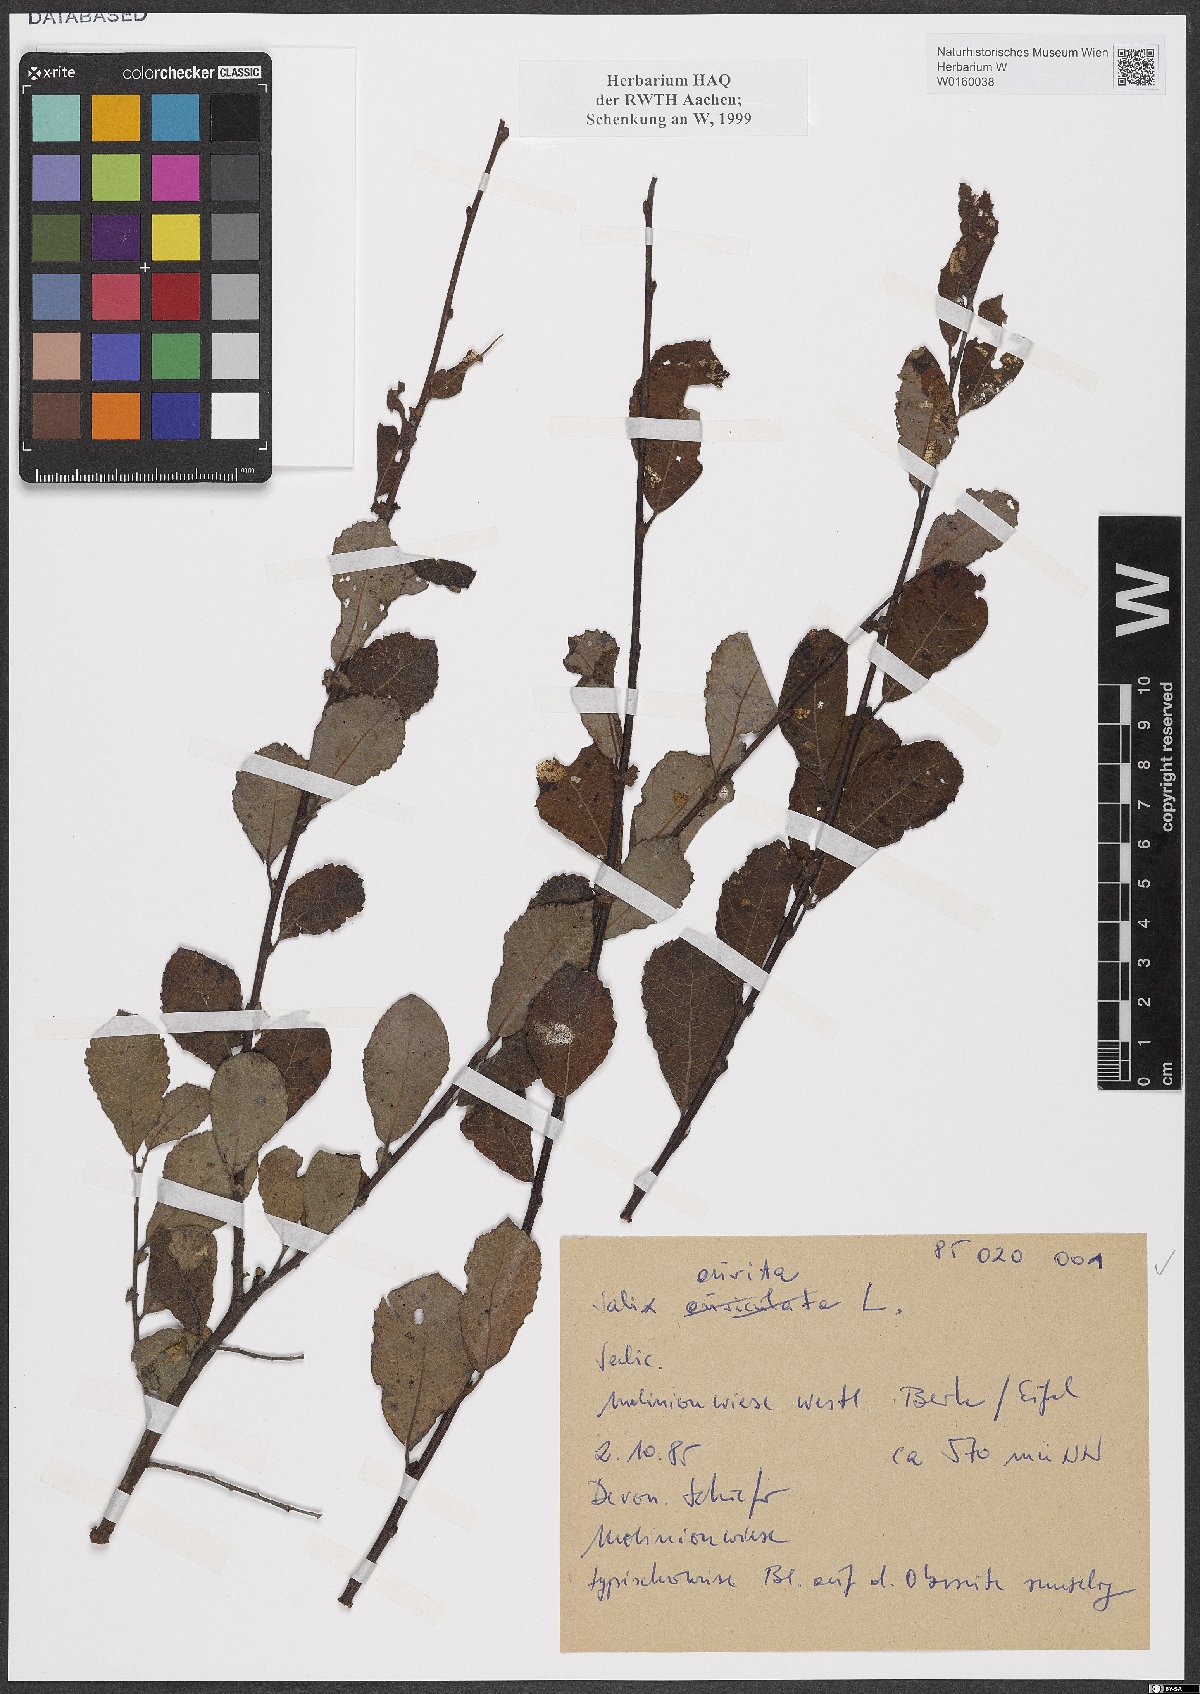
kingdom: Plantae
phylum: Tracheophyta
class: Magnoliopsida
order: Malpighiales
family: Salicaceae
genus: Salix
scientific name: Salix aurita
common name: Eared willow
